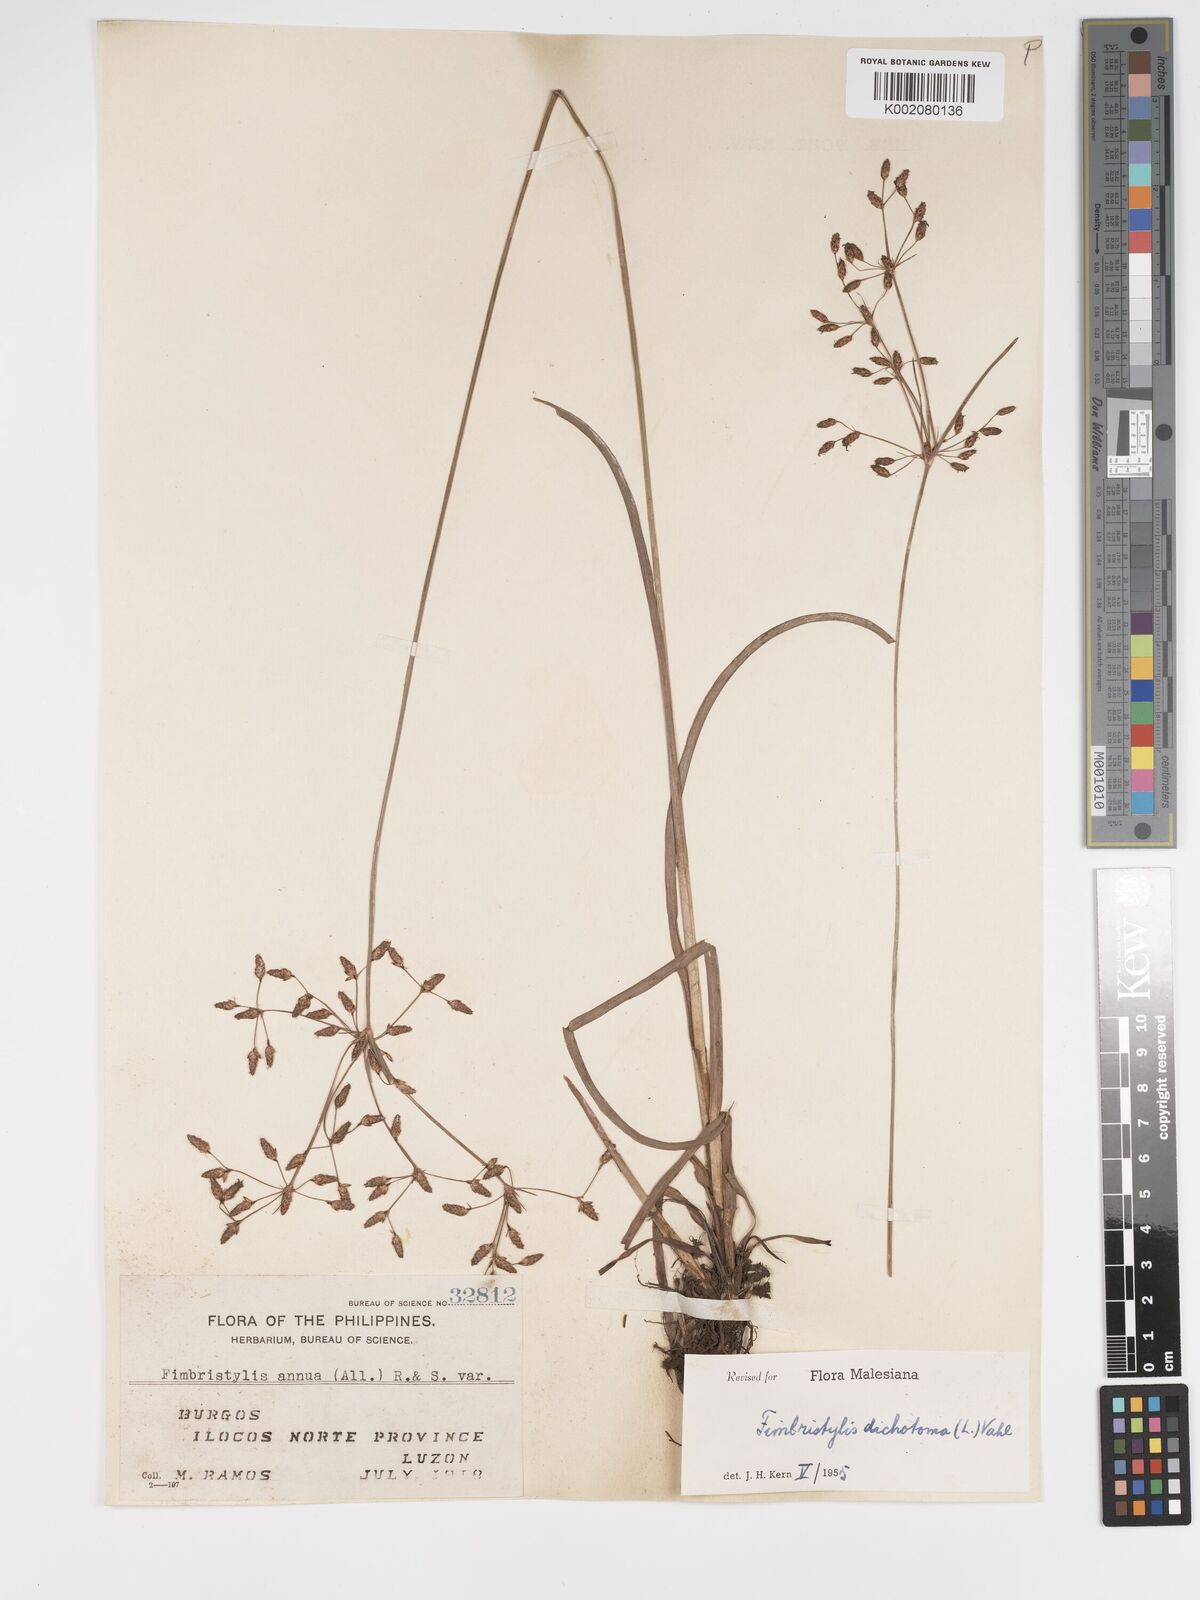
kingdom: Plantae
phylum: Tracheophyta
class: Liliopsida
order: Poales
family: Cyperaceae
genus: Fimbristylis
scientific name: Fimbristylis dichotoma
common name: Forked fimbry
